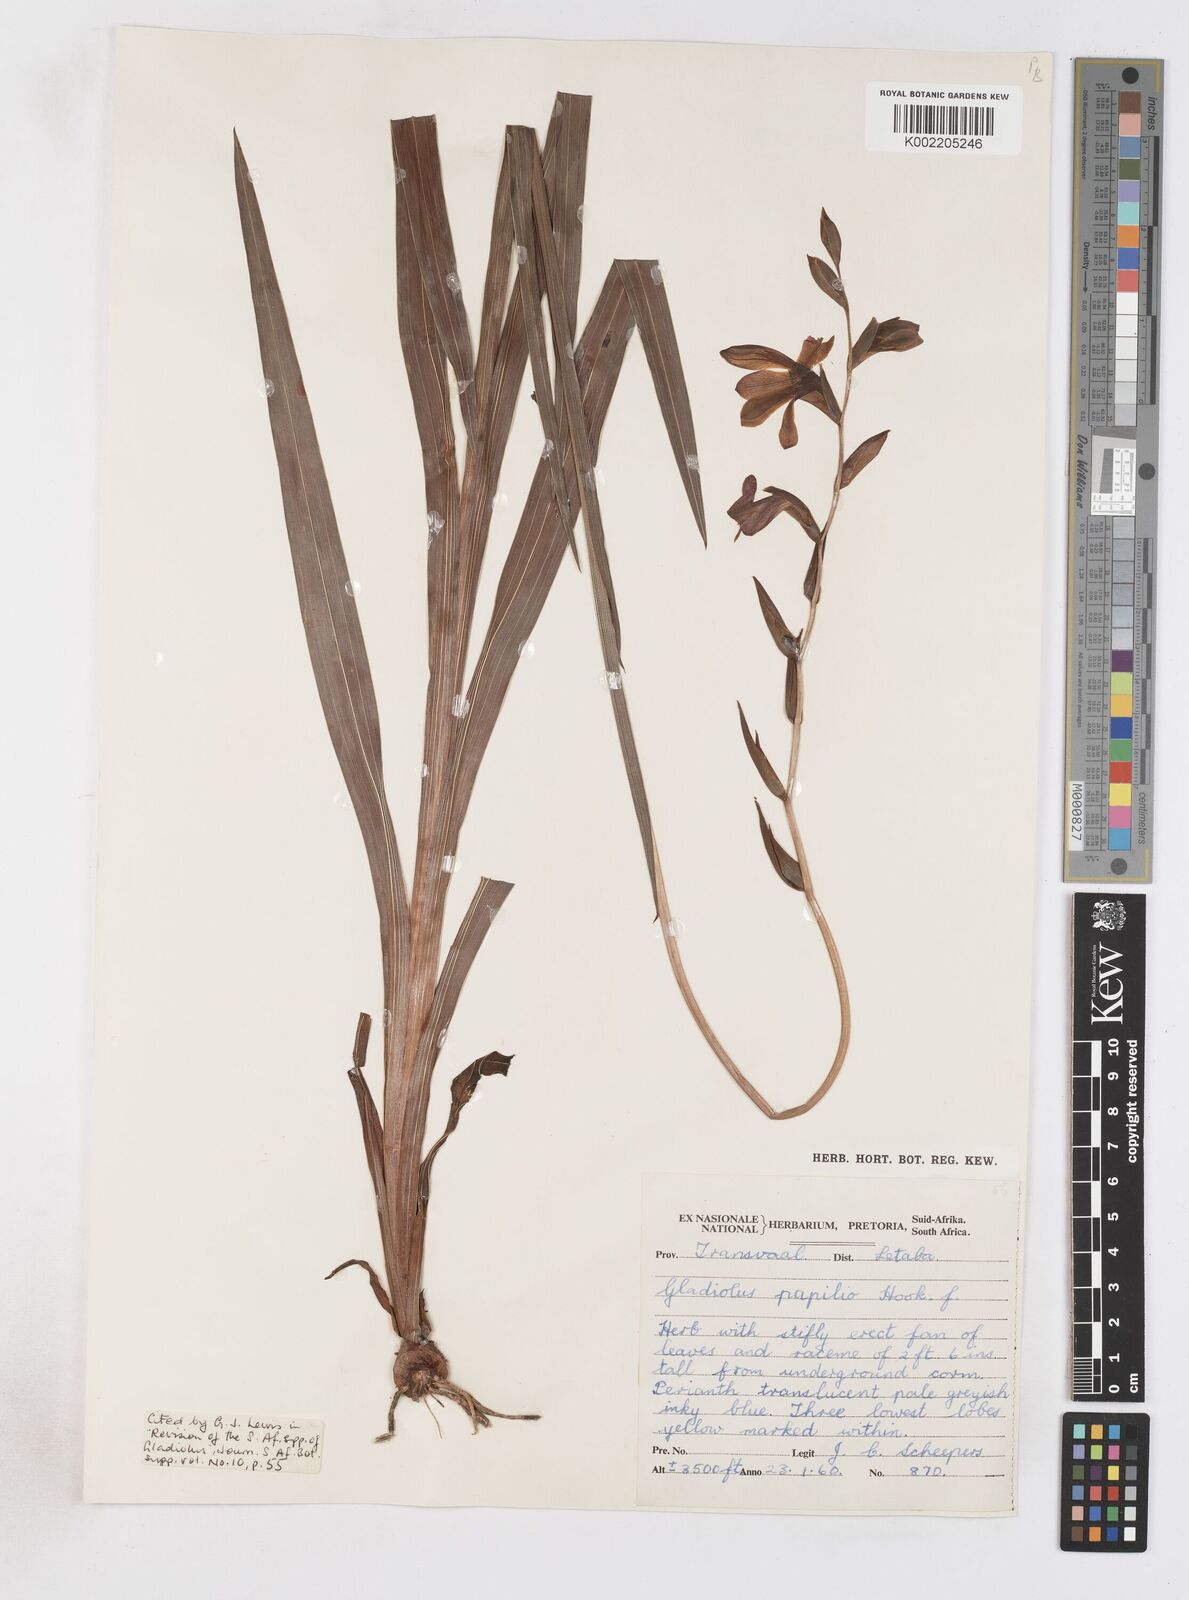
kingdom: Plantae
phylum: Tracheophyta
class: Liliopsida
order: Asparagales
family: Iridaceae
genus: Gladiolus
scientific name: Gladiolus papilio
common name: Goldblotch gladiolus
